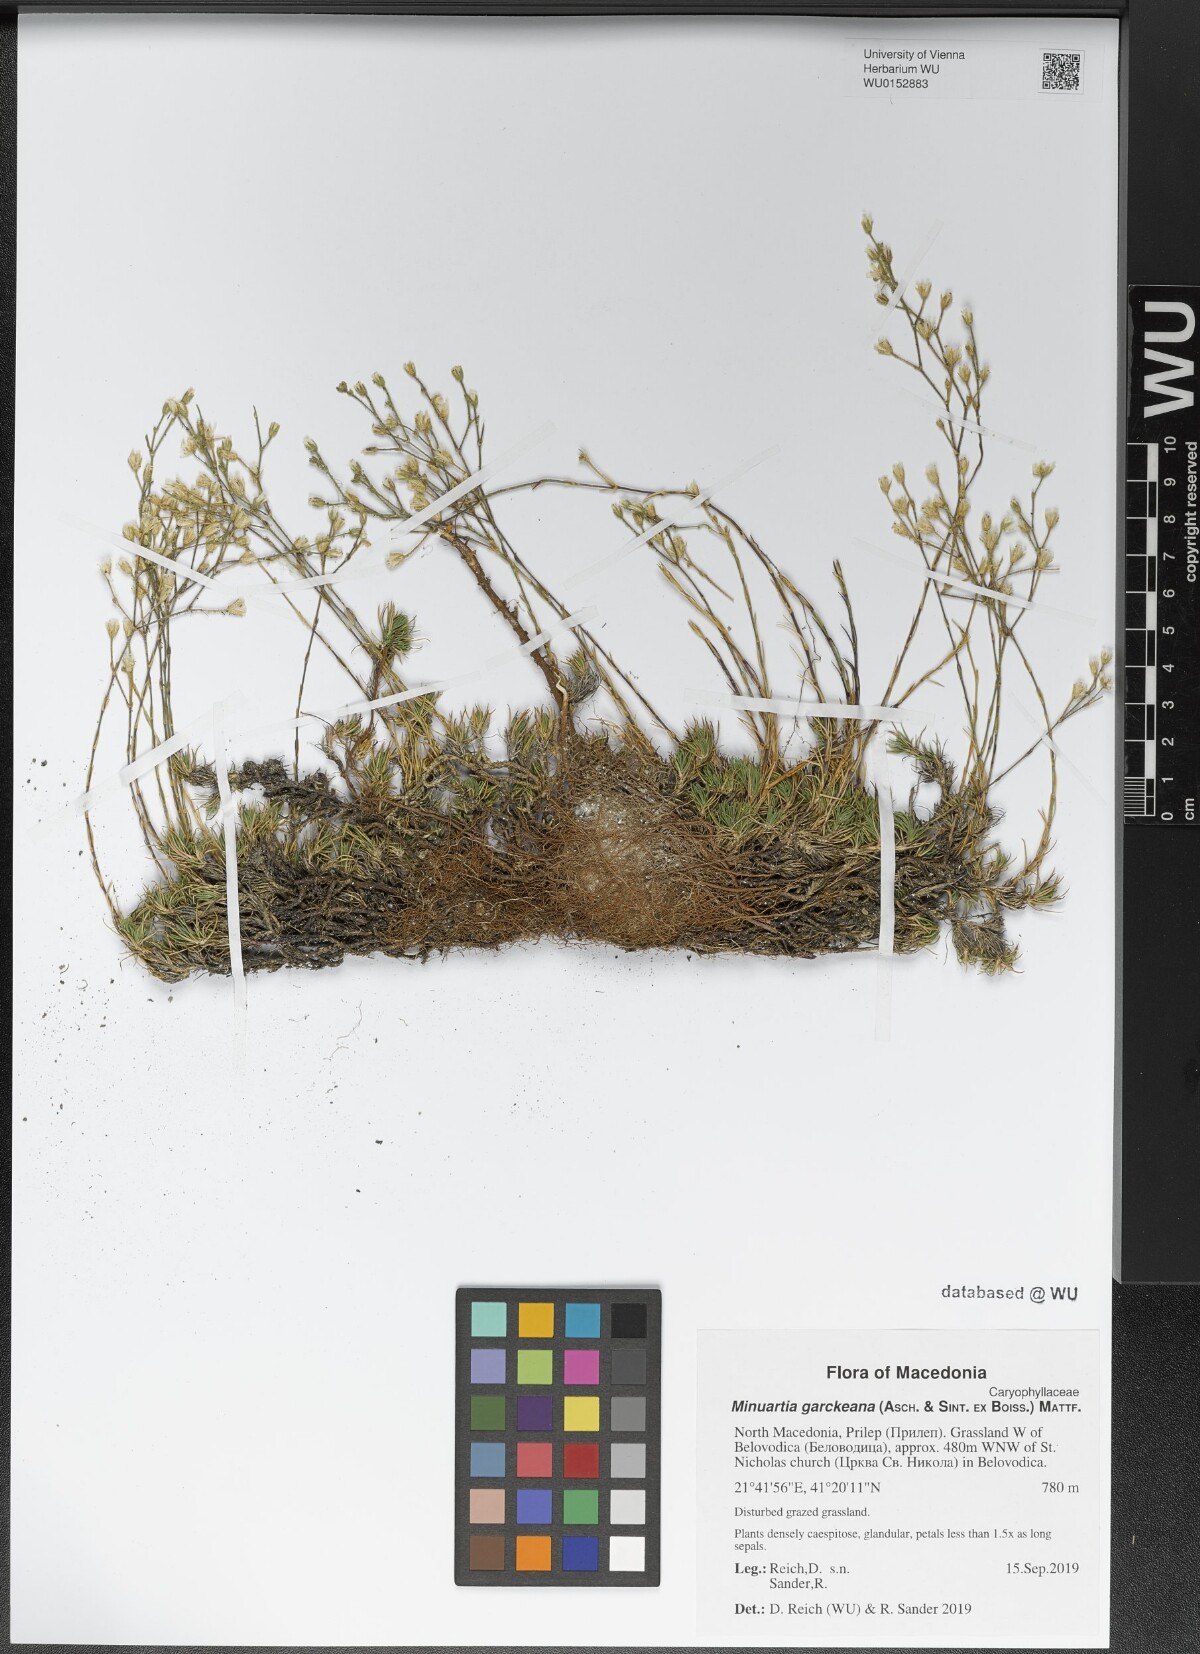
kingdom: Plantae
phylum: Tracheophyta
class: Magnoliopsida
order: Caryophyllales
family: Caryophyllaceae
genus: Cherleria
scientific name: Cherleria garckeana
